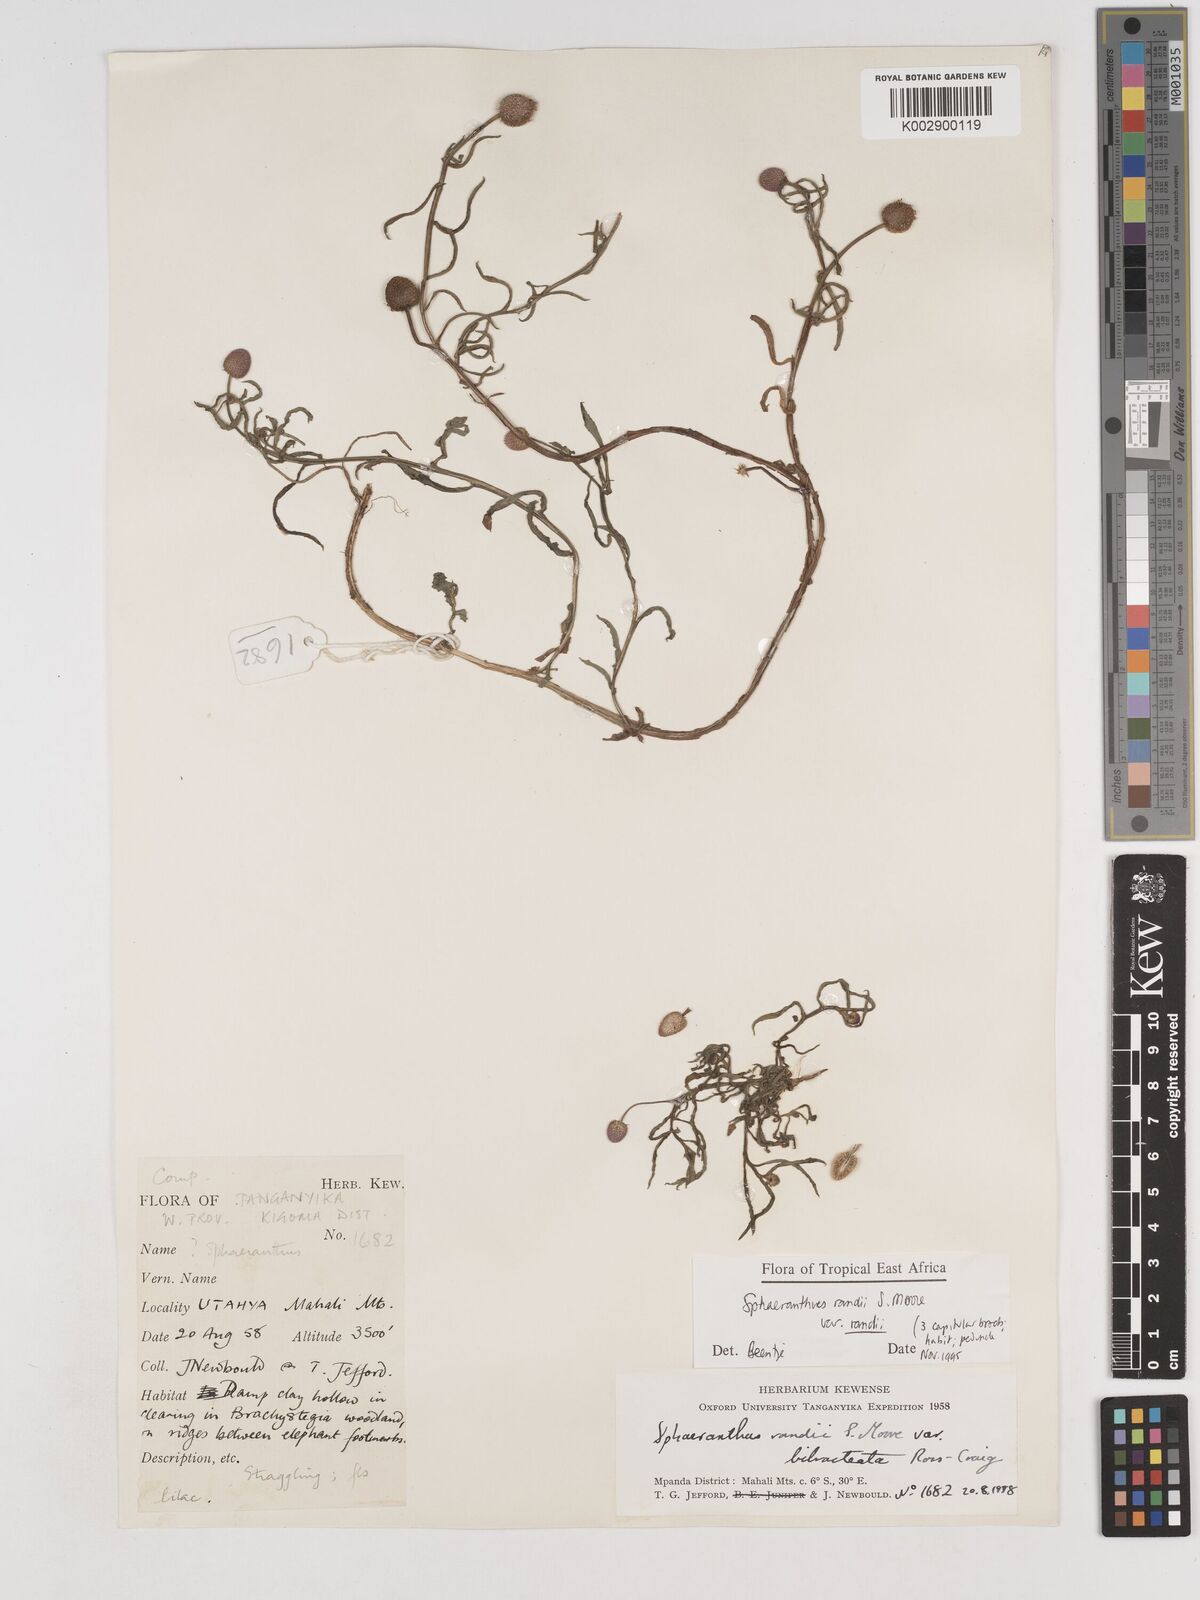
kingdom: Plantae
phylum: Tracheophyta
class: Magnoliopsida
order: Asterales
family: Asteraceae
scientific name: Asteraceae
